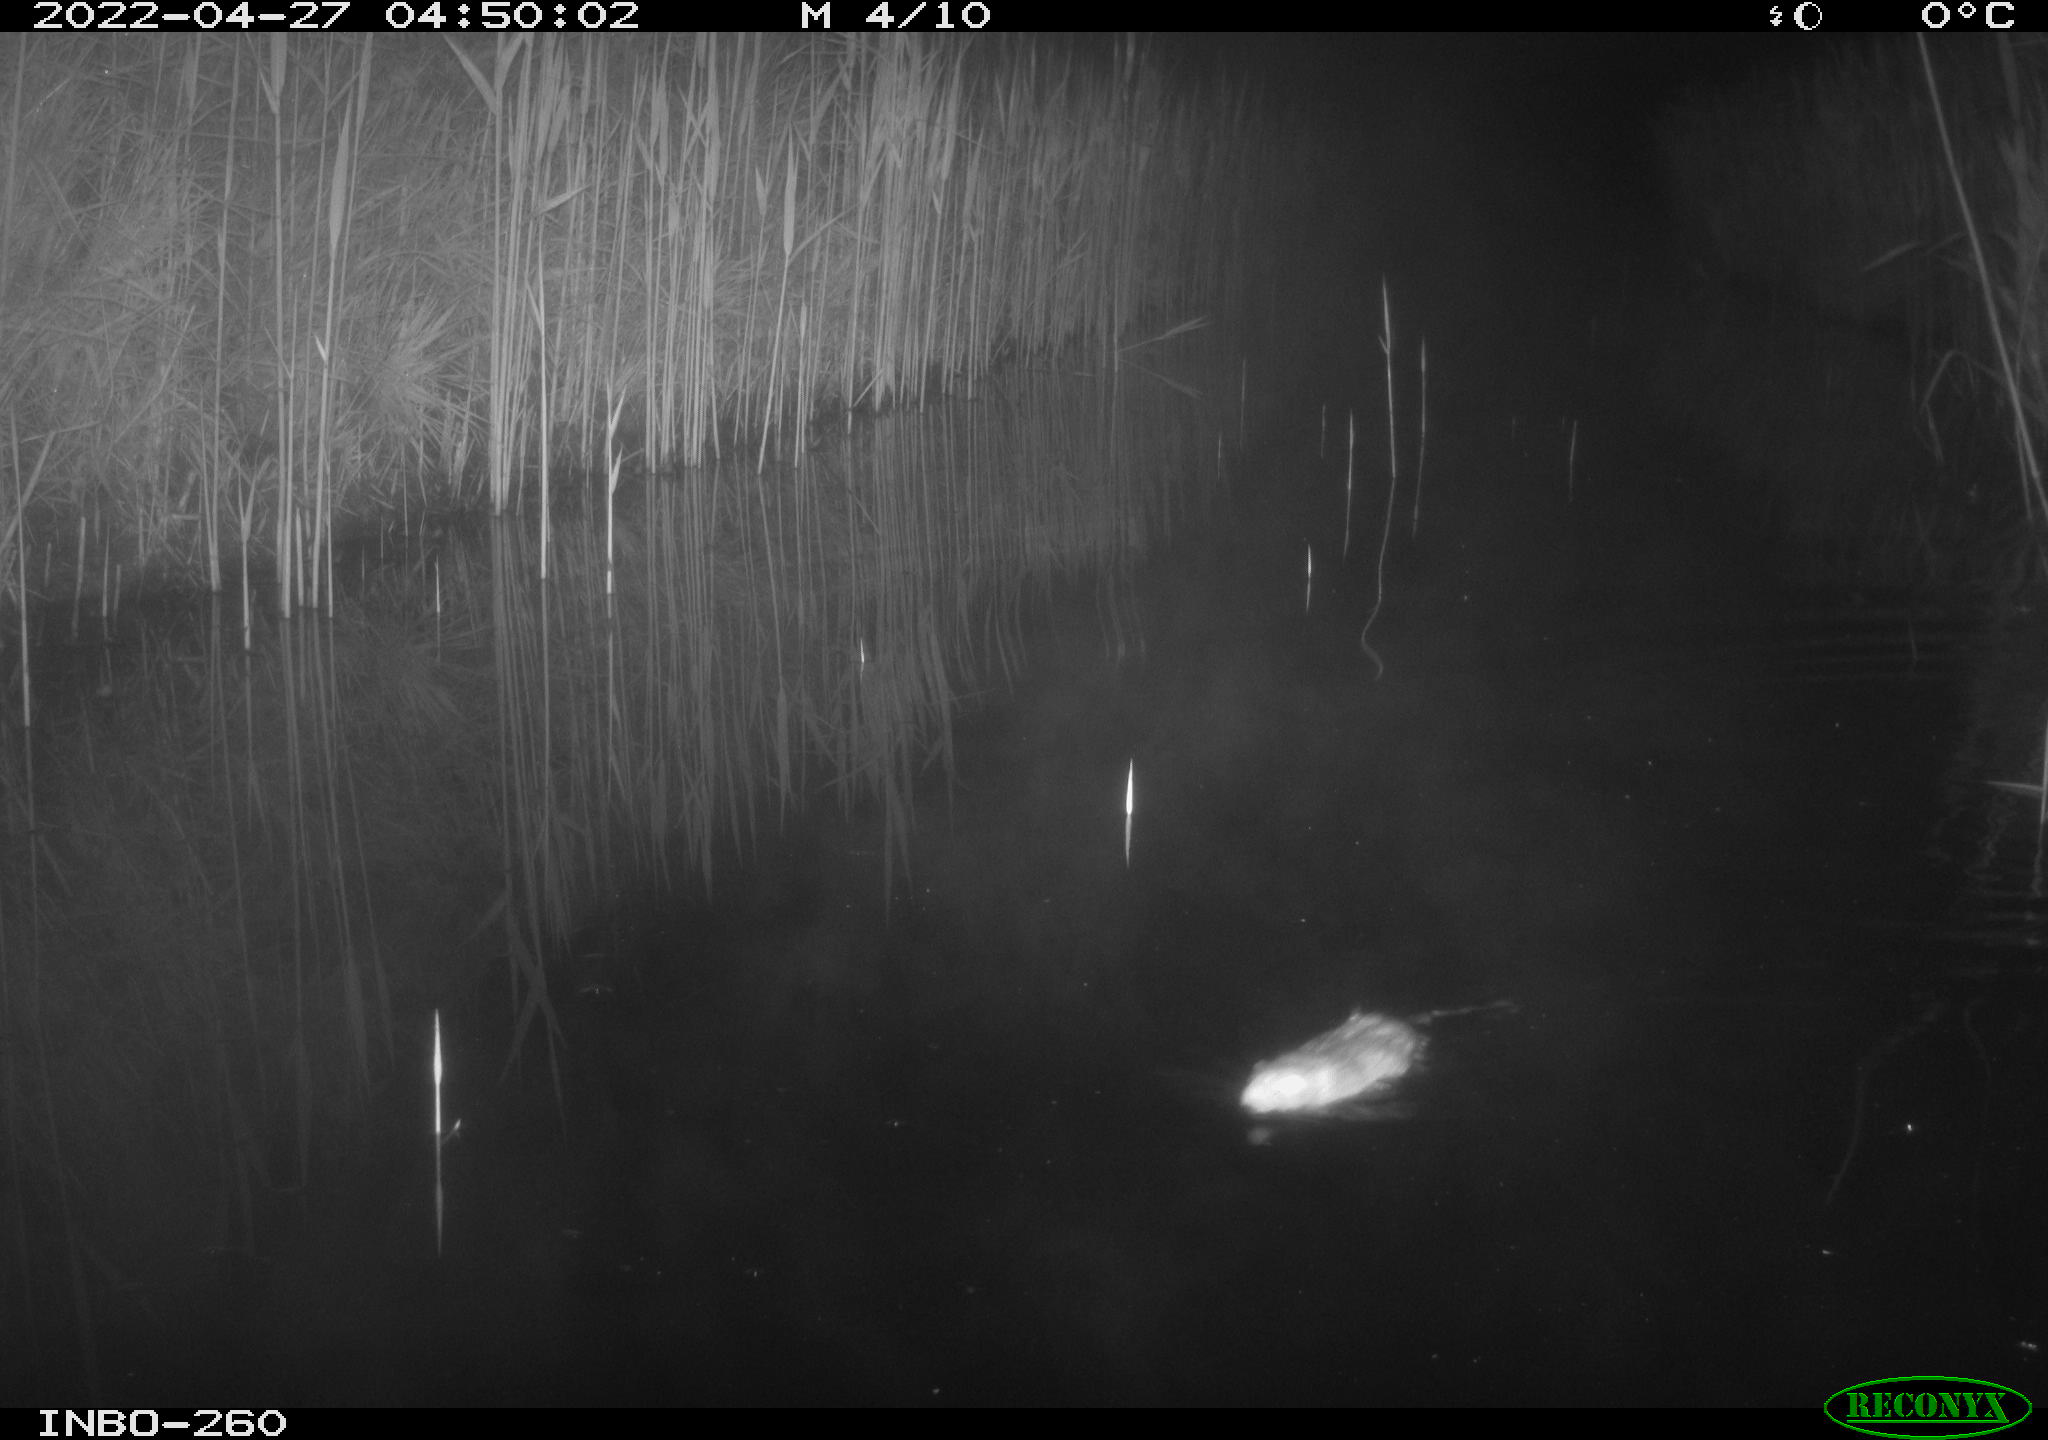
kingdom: Animalia
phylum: Chordata
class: Mammalia
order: Rodentia
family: Cricetidae
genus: Ondatra
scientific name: Ondatra zibethicus
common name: Muskrat
